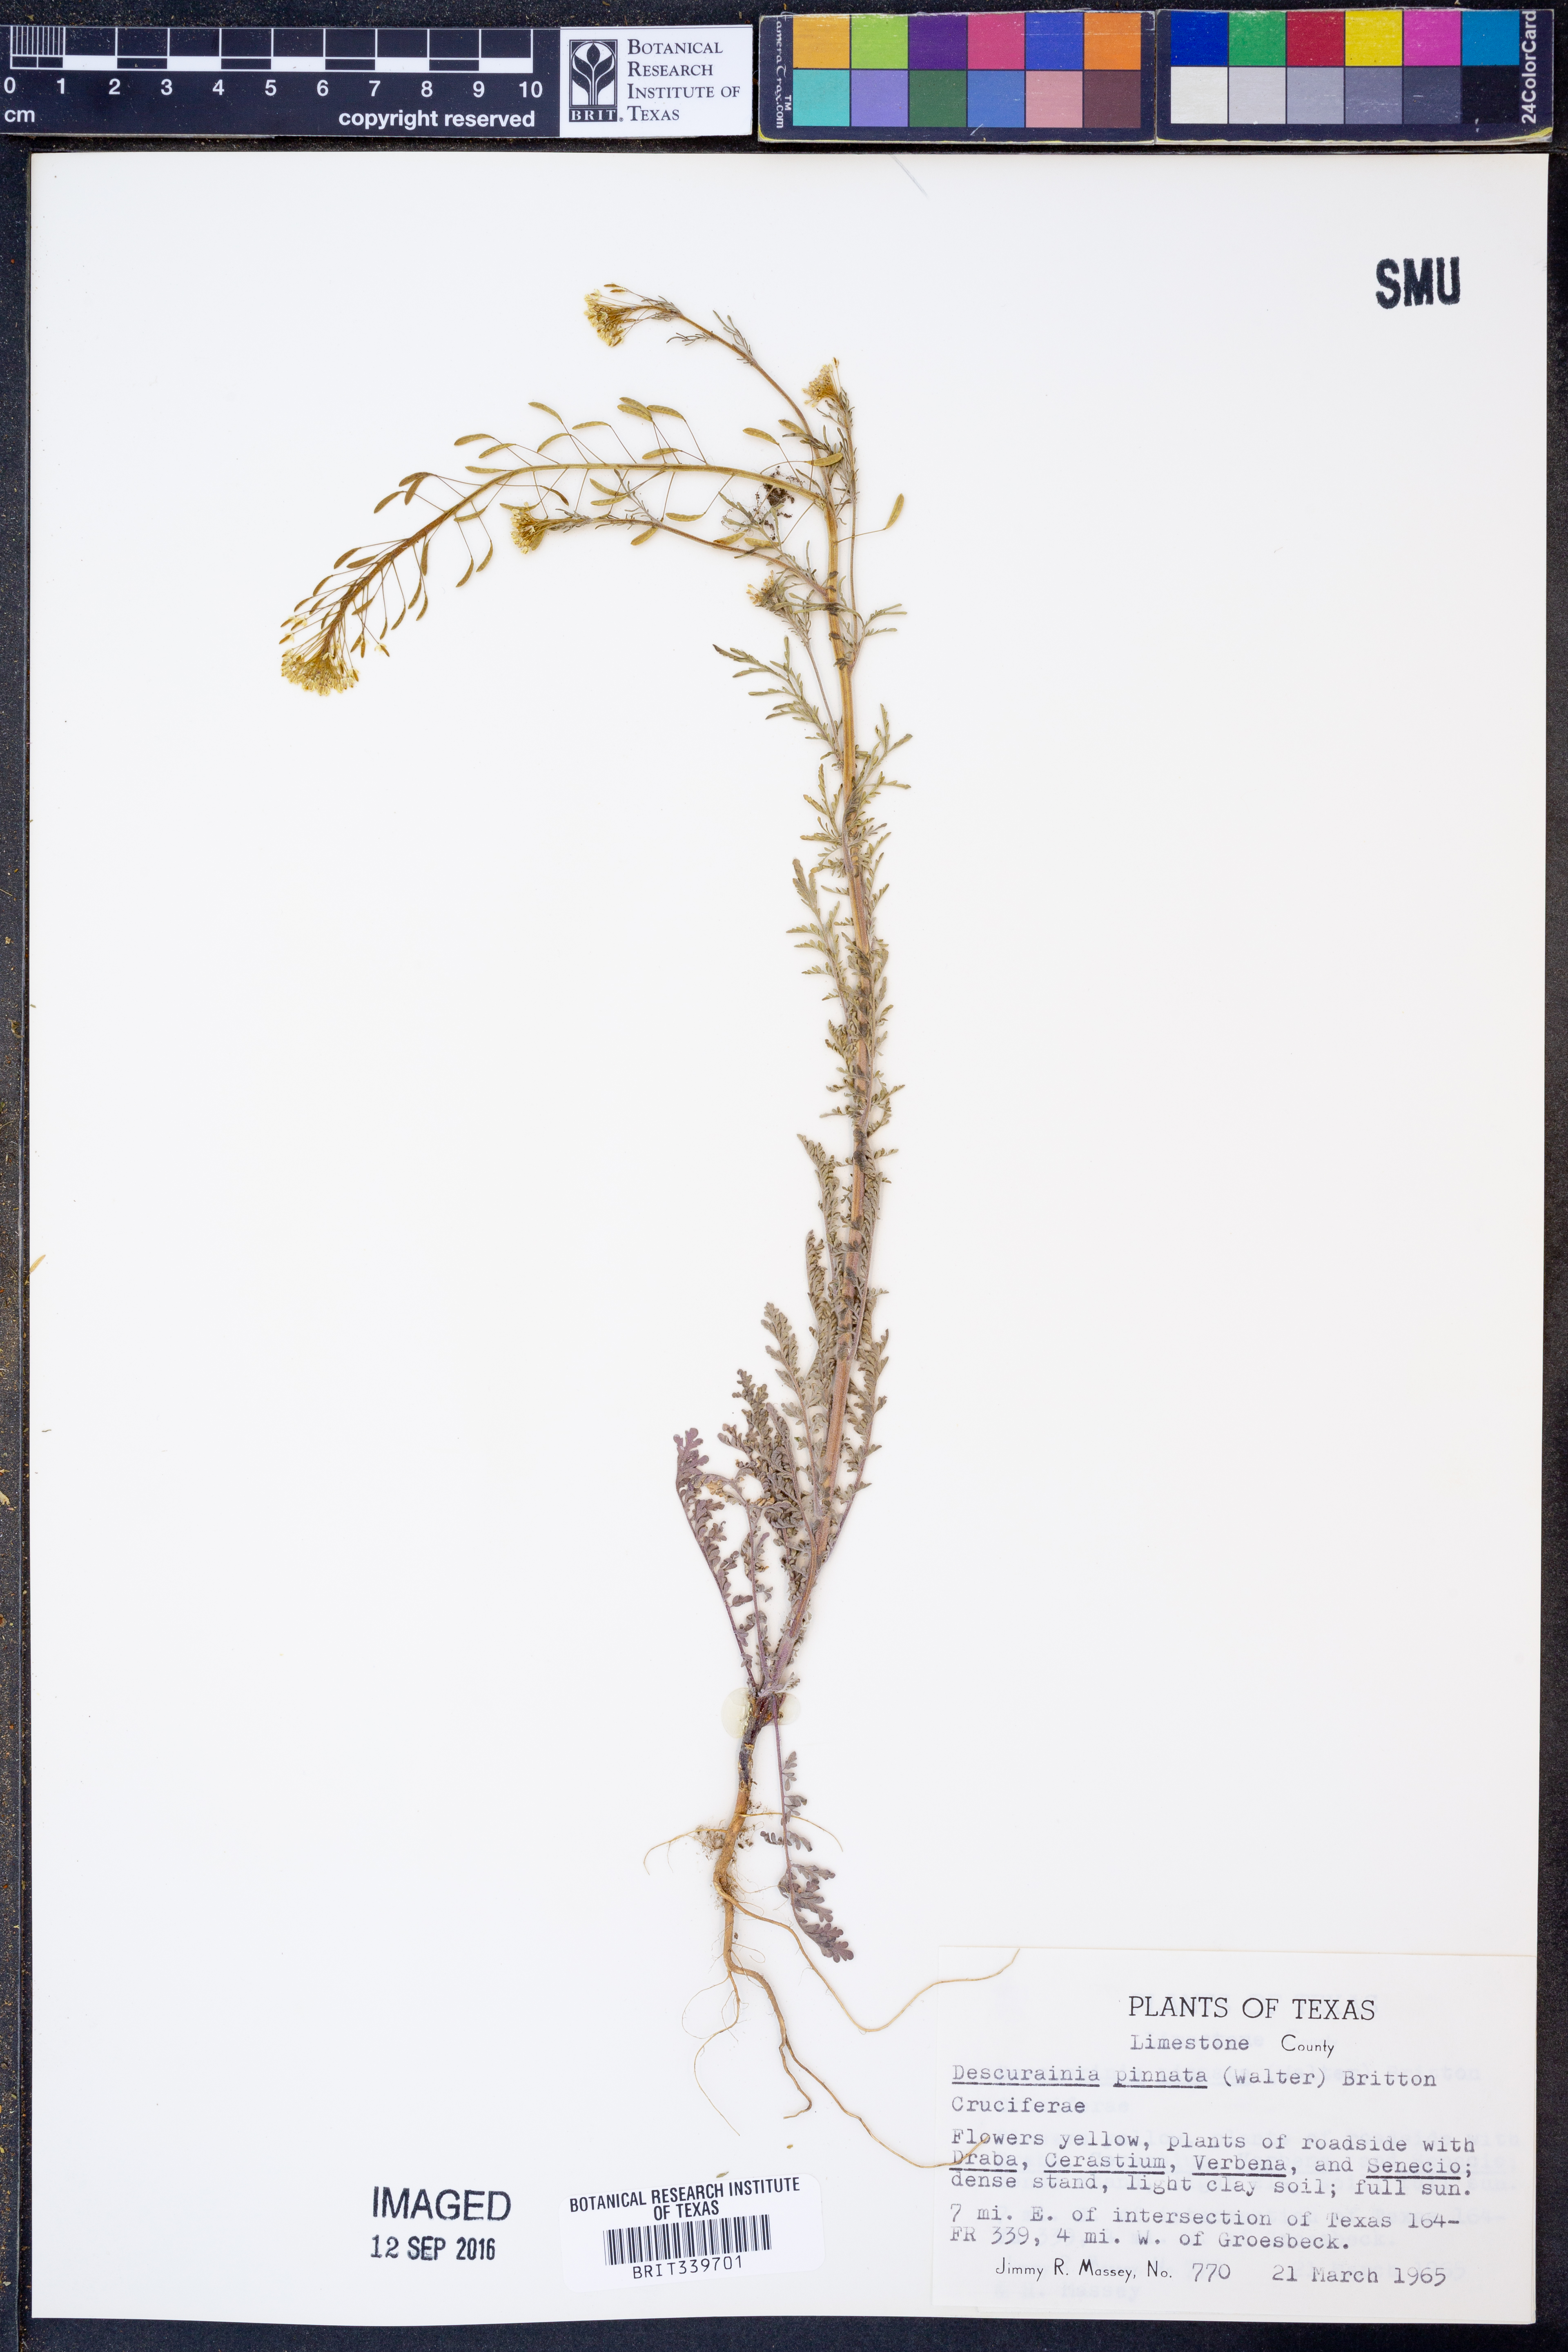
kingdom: Plantae
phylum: Tracheophyta
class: Magnoliopsida
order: Brassicales
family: Brassicaceae
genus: Descurainia
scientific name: Descurainia pinnata
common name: Western tansy mustard
